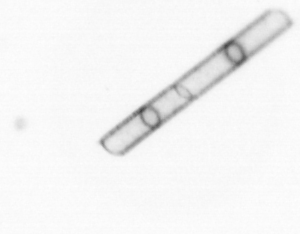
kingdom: Chromista
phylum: Ochrophyta
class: Bacillariophyceae
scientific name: Bacillariophyceae
